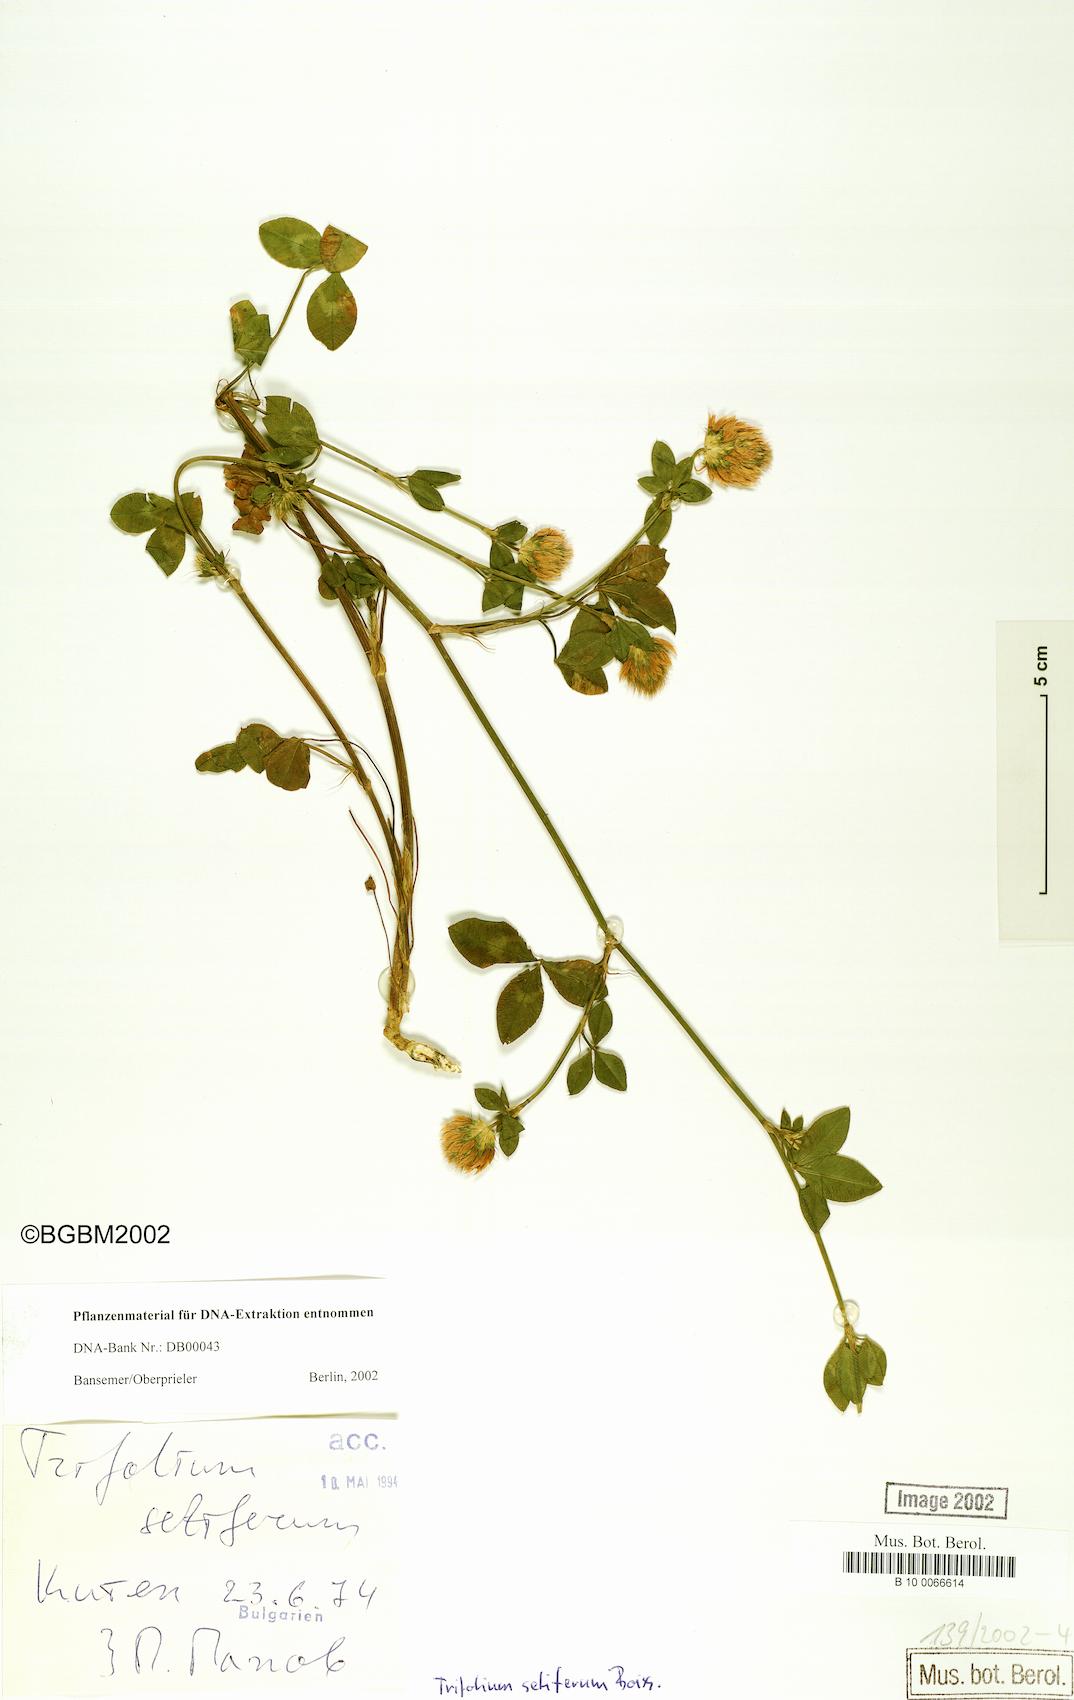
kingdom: Plantae
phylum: Tracheophyta
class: Magnoliopsida
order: Fabales
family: Fabaceae
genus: Trifolium
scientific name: Trifolium setiferum
